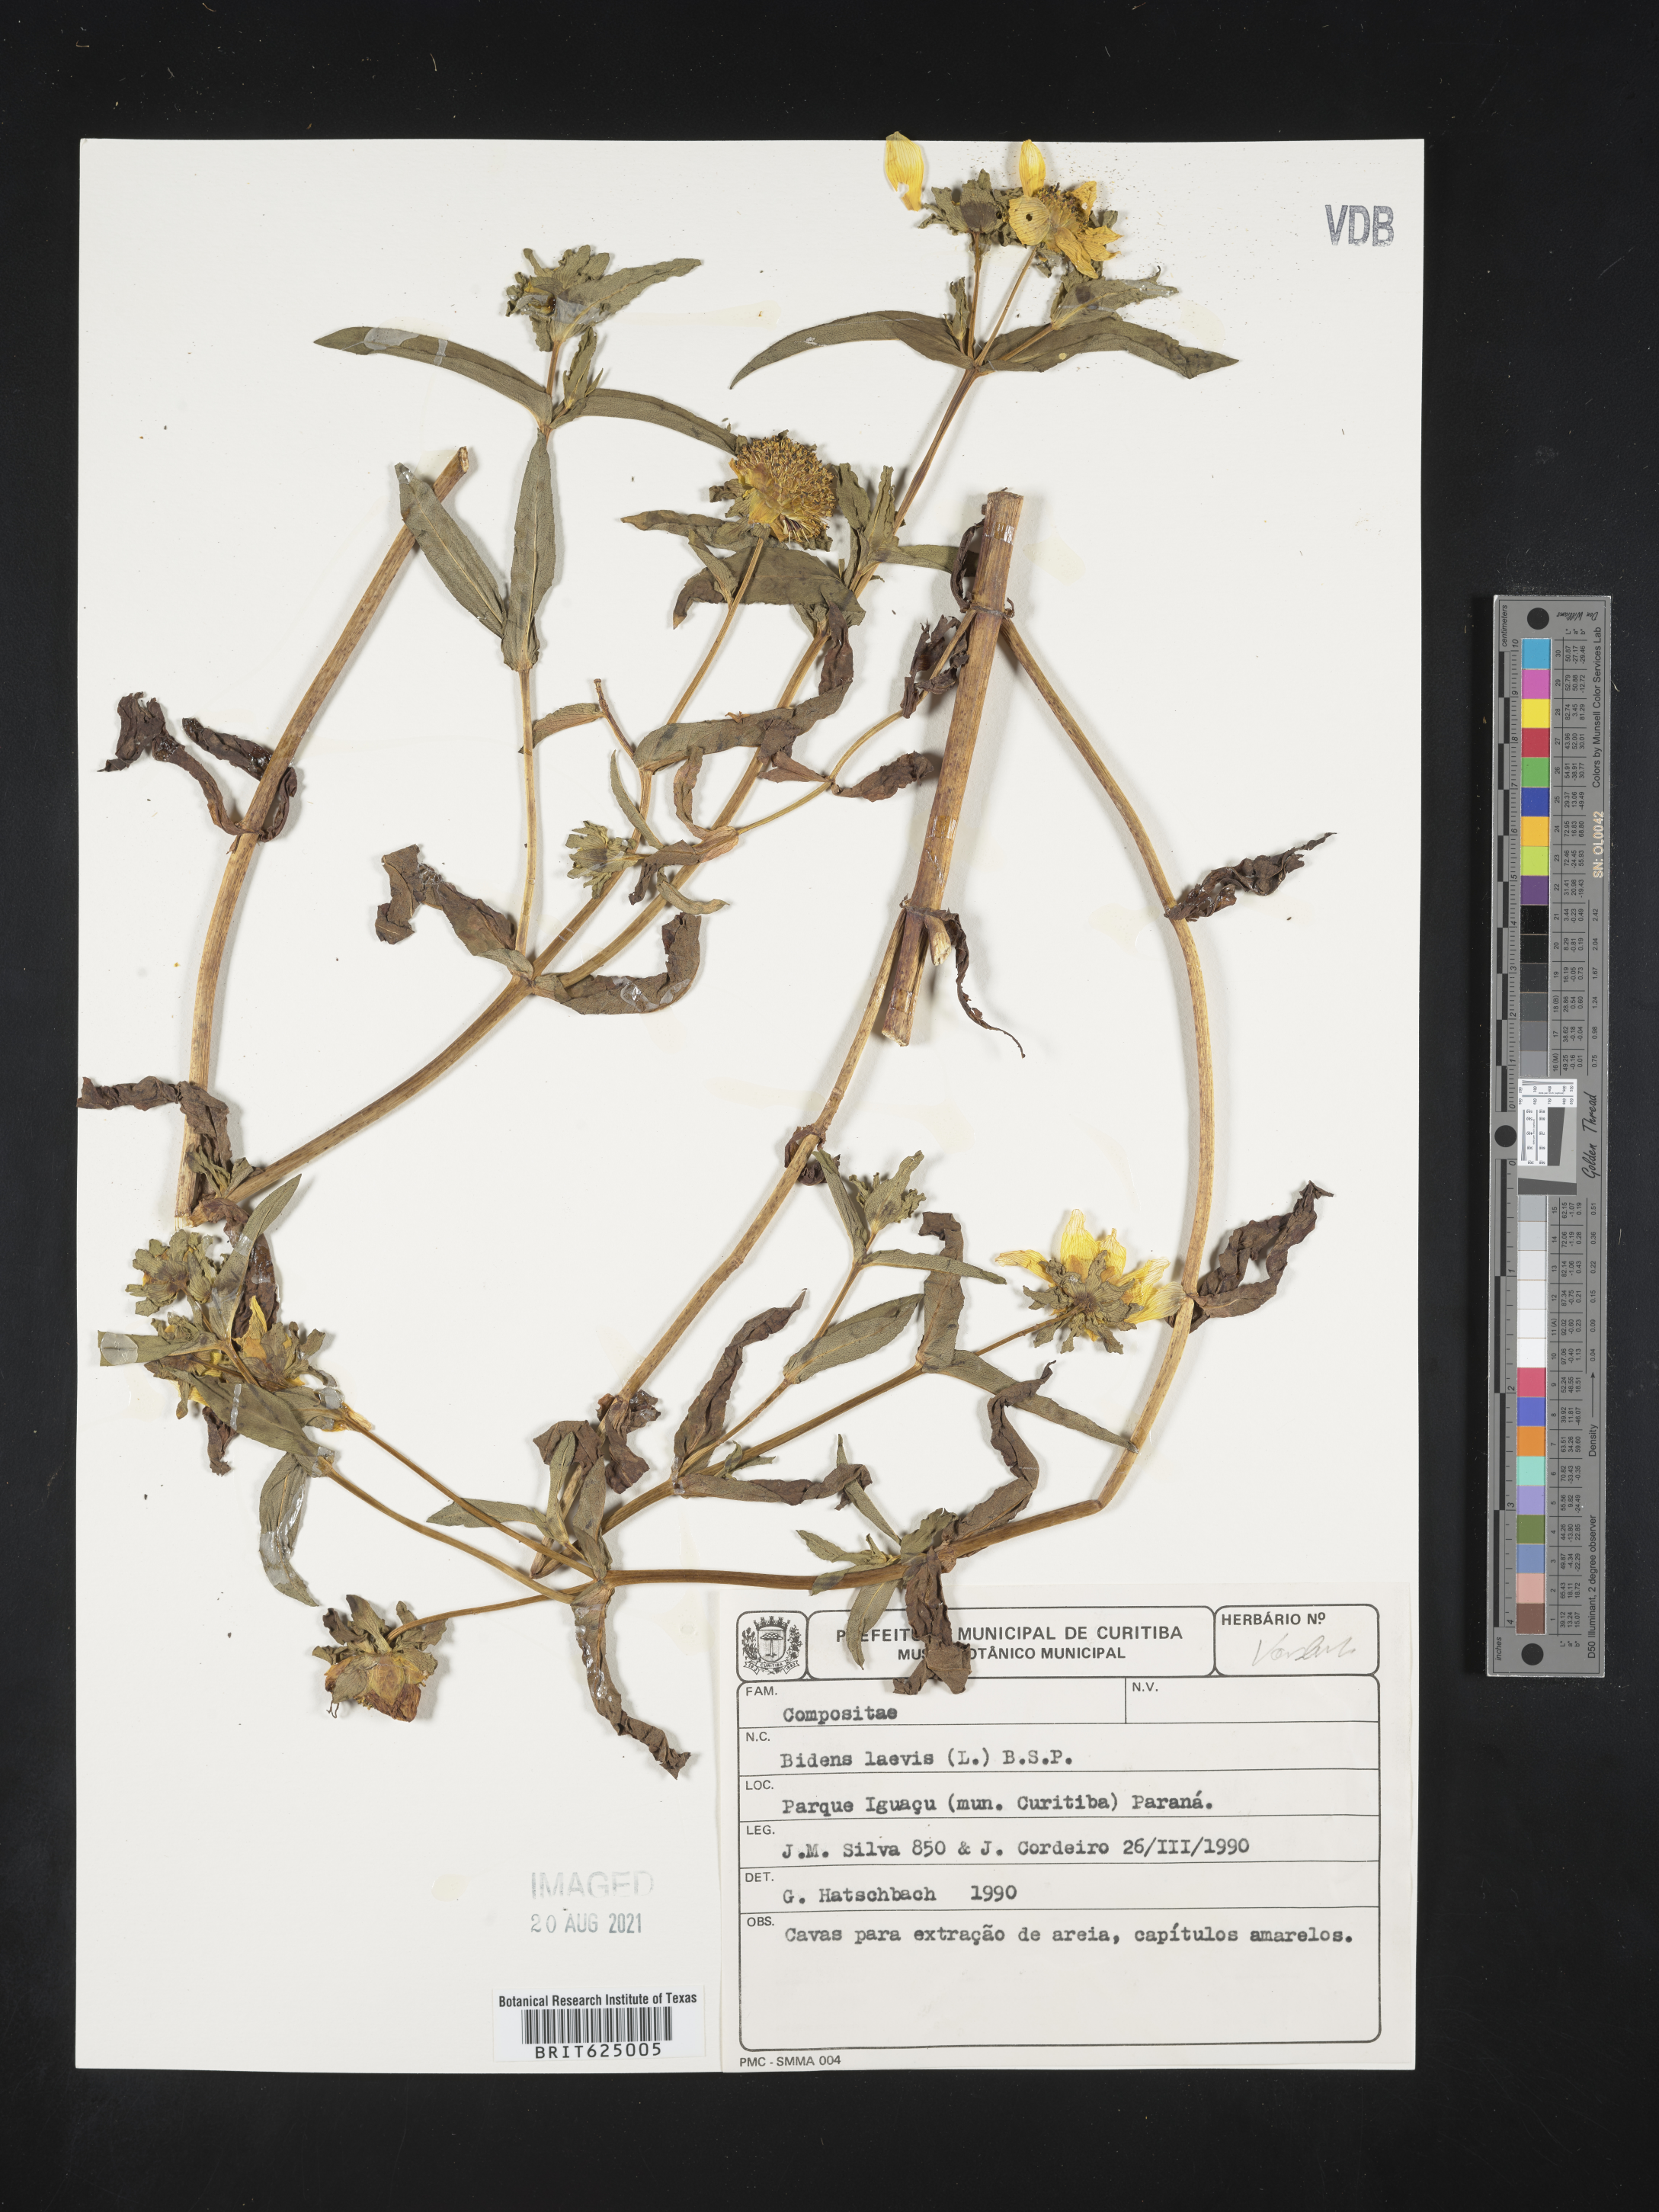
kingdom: Plantae
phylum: Tracheophyta
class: Magnoliopsida
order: Asterales
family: Asteraceae
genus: Bidens
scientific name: Bidens laevis
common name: Larger bur-marigold
